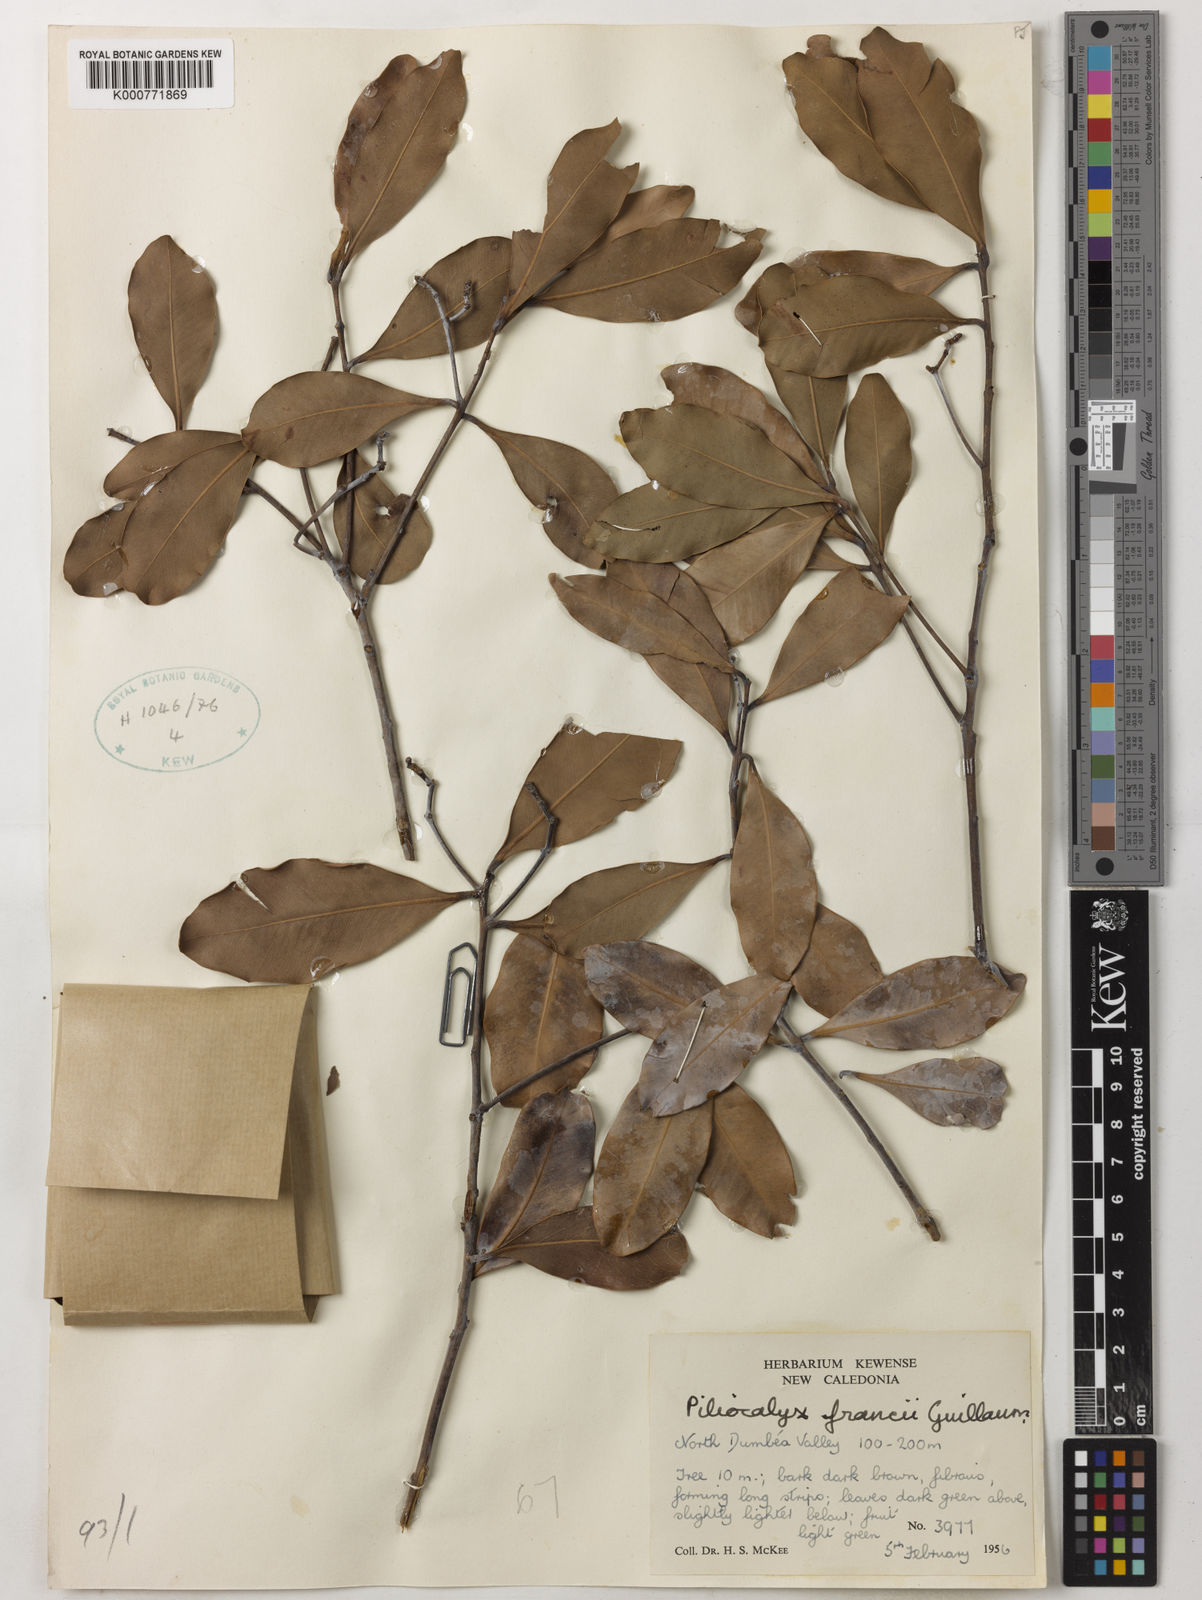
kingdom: Plantae
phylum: Tracheophyta
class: Magnoliopsida
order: Myrtales
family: Myrtaceae
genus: Syzygium
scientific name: Syzygium francii
